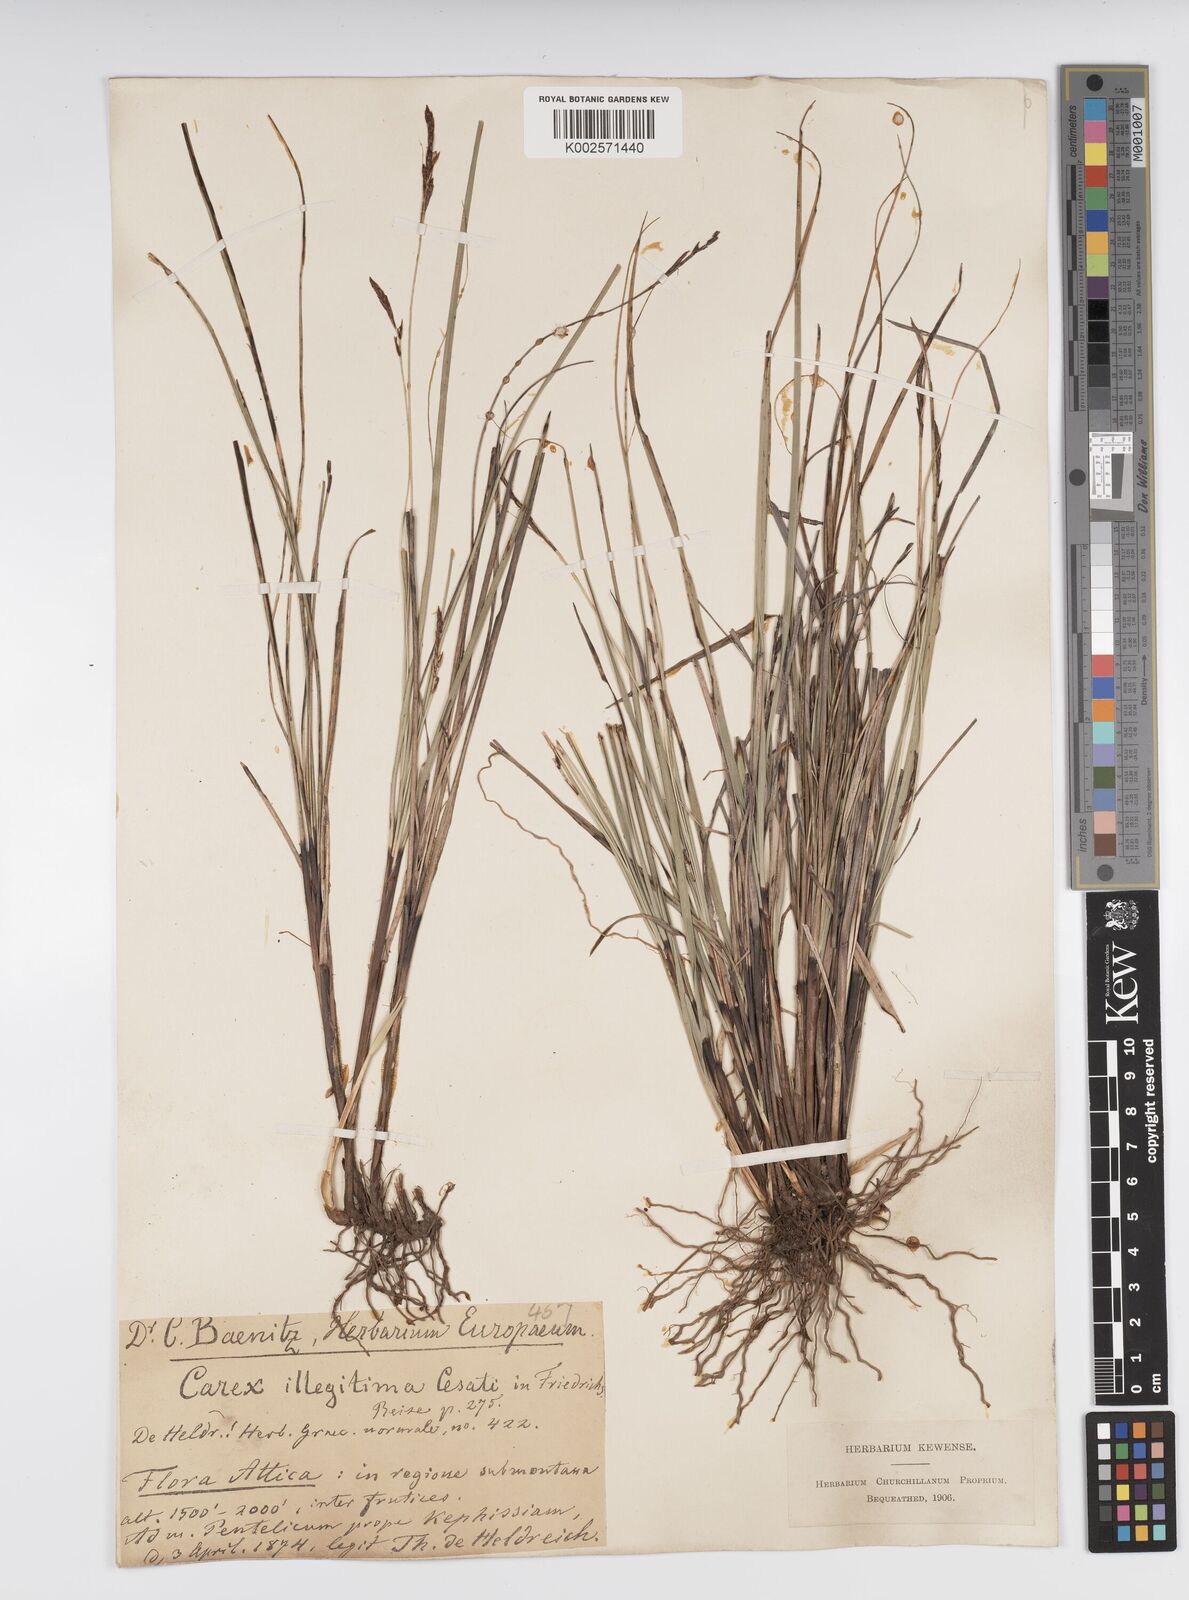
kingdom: Plantae
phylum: Tracheophyta
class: Liliopsida
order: Poales
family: Cyperaceae
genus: Carex
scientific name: Carex illegitima
